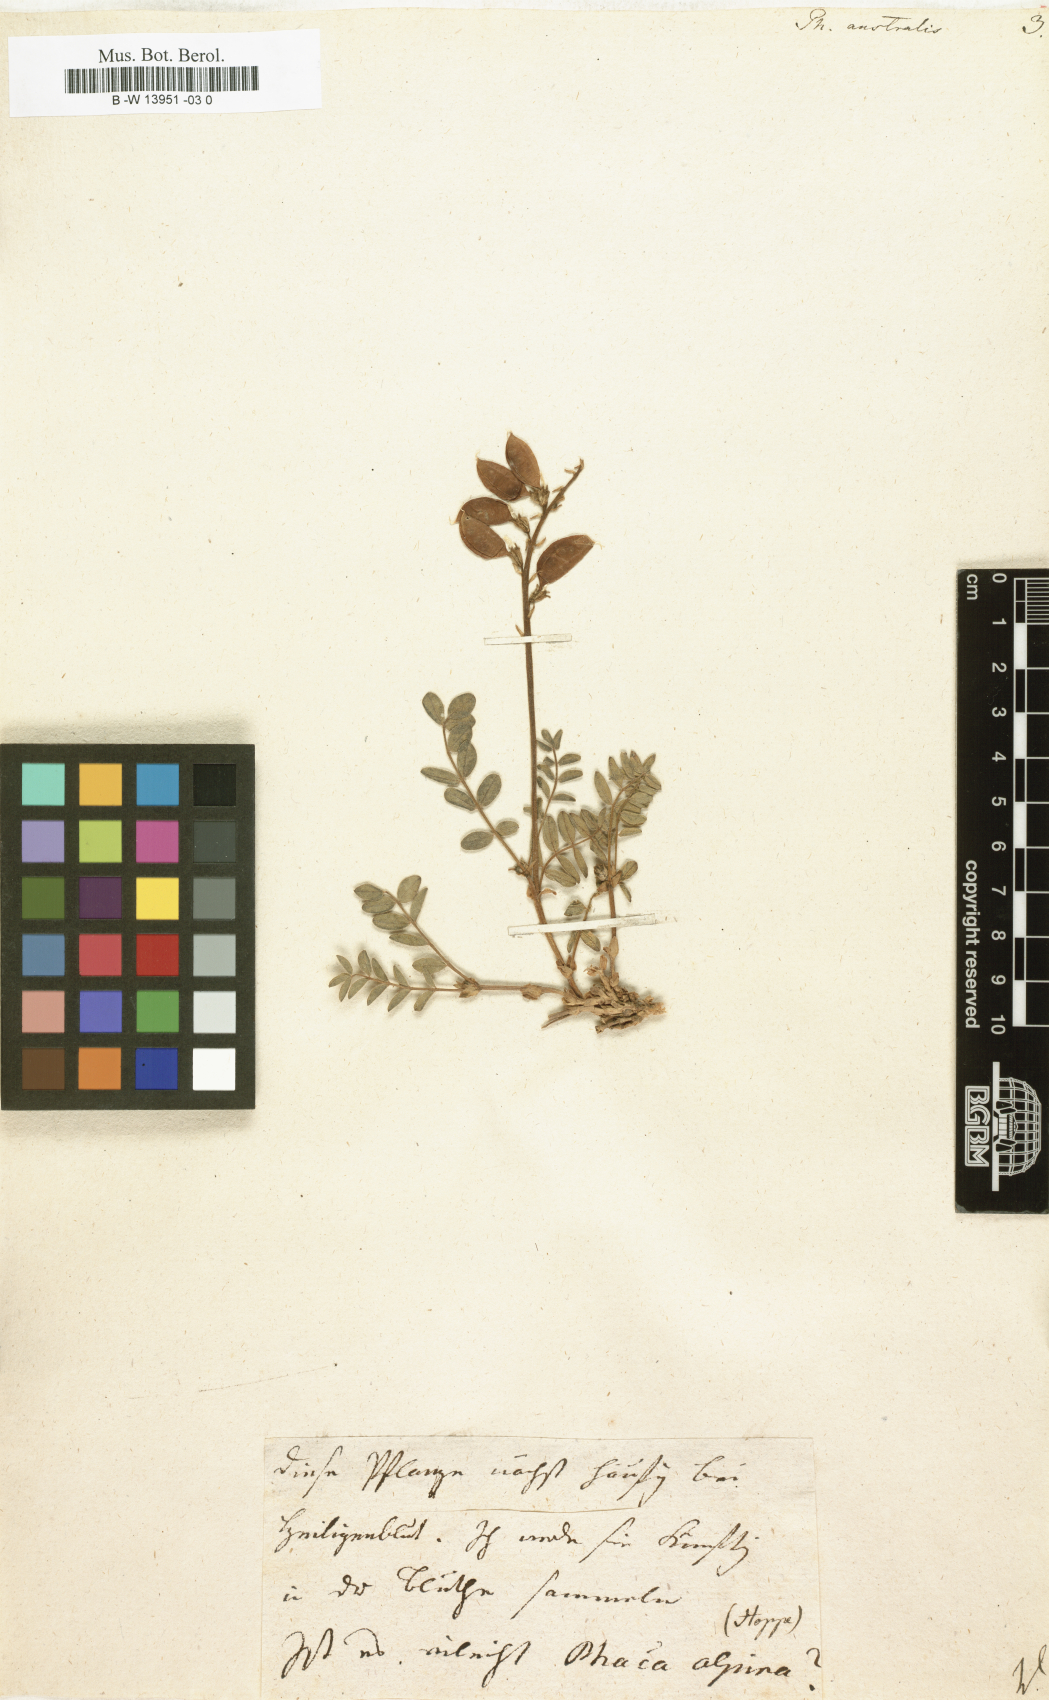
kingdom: Plantae
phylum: Tracheophyta
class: Magnoliopsida
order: Fabales
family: Fabaceae
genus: Astragalus
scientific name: Astragalus
